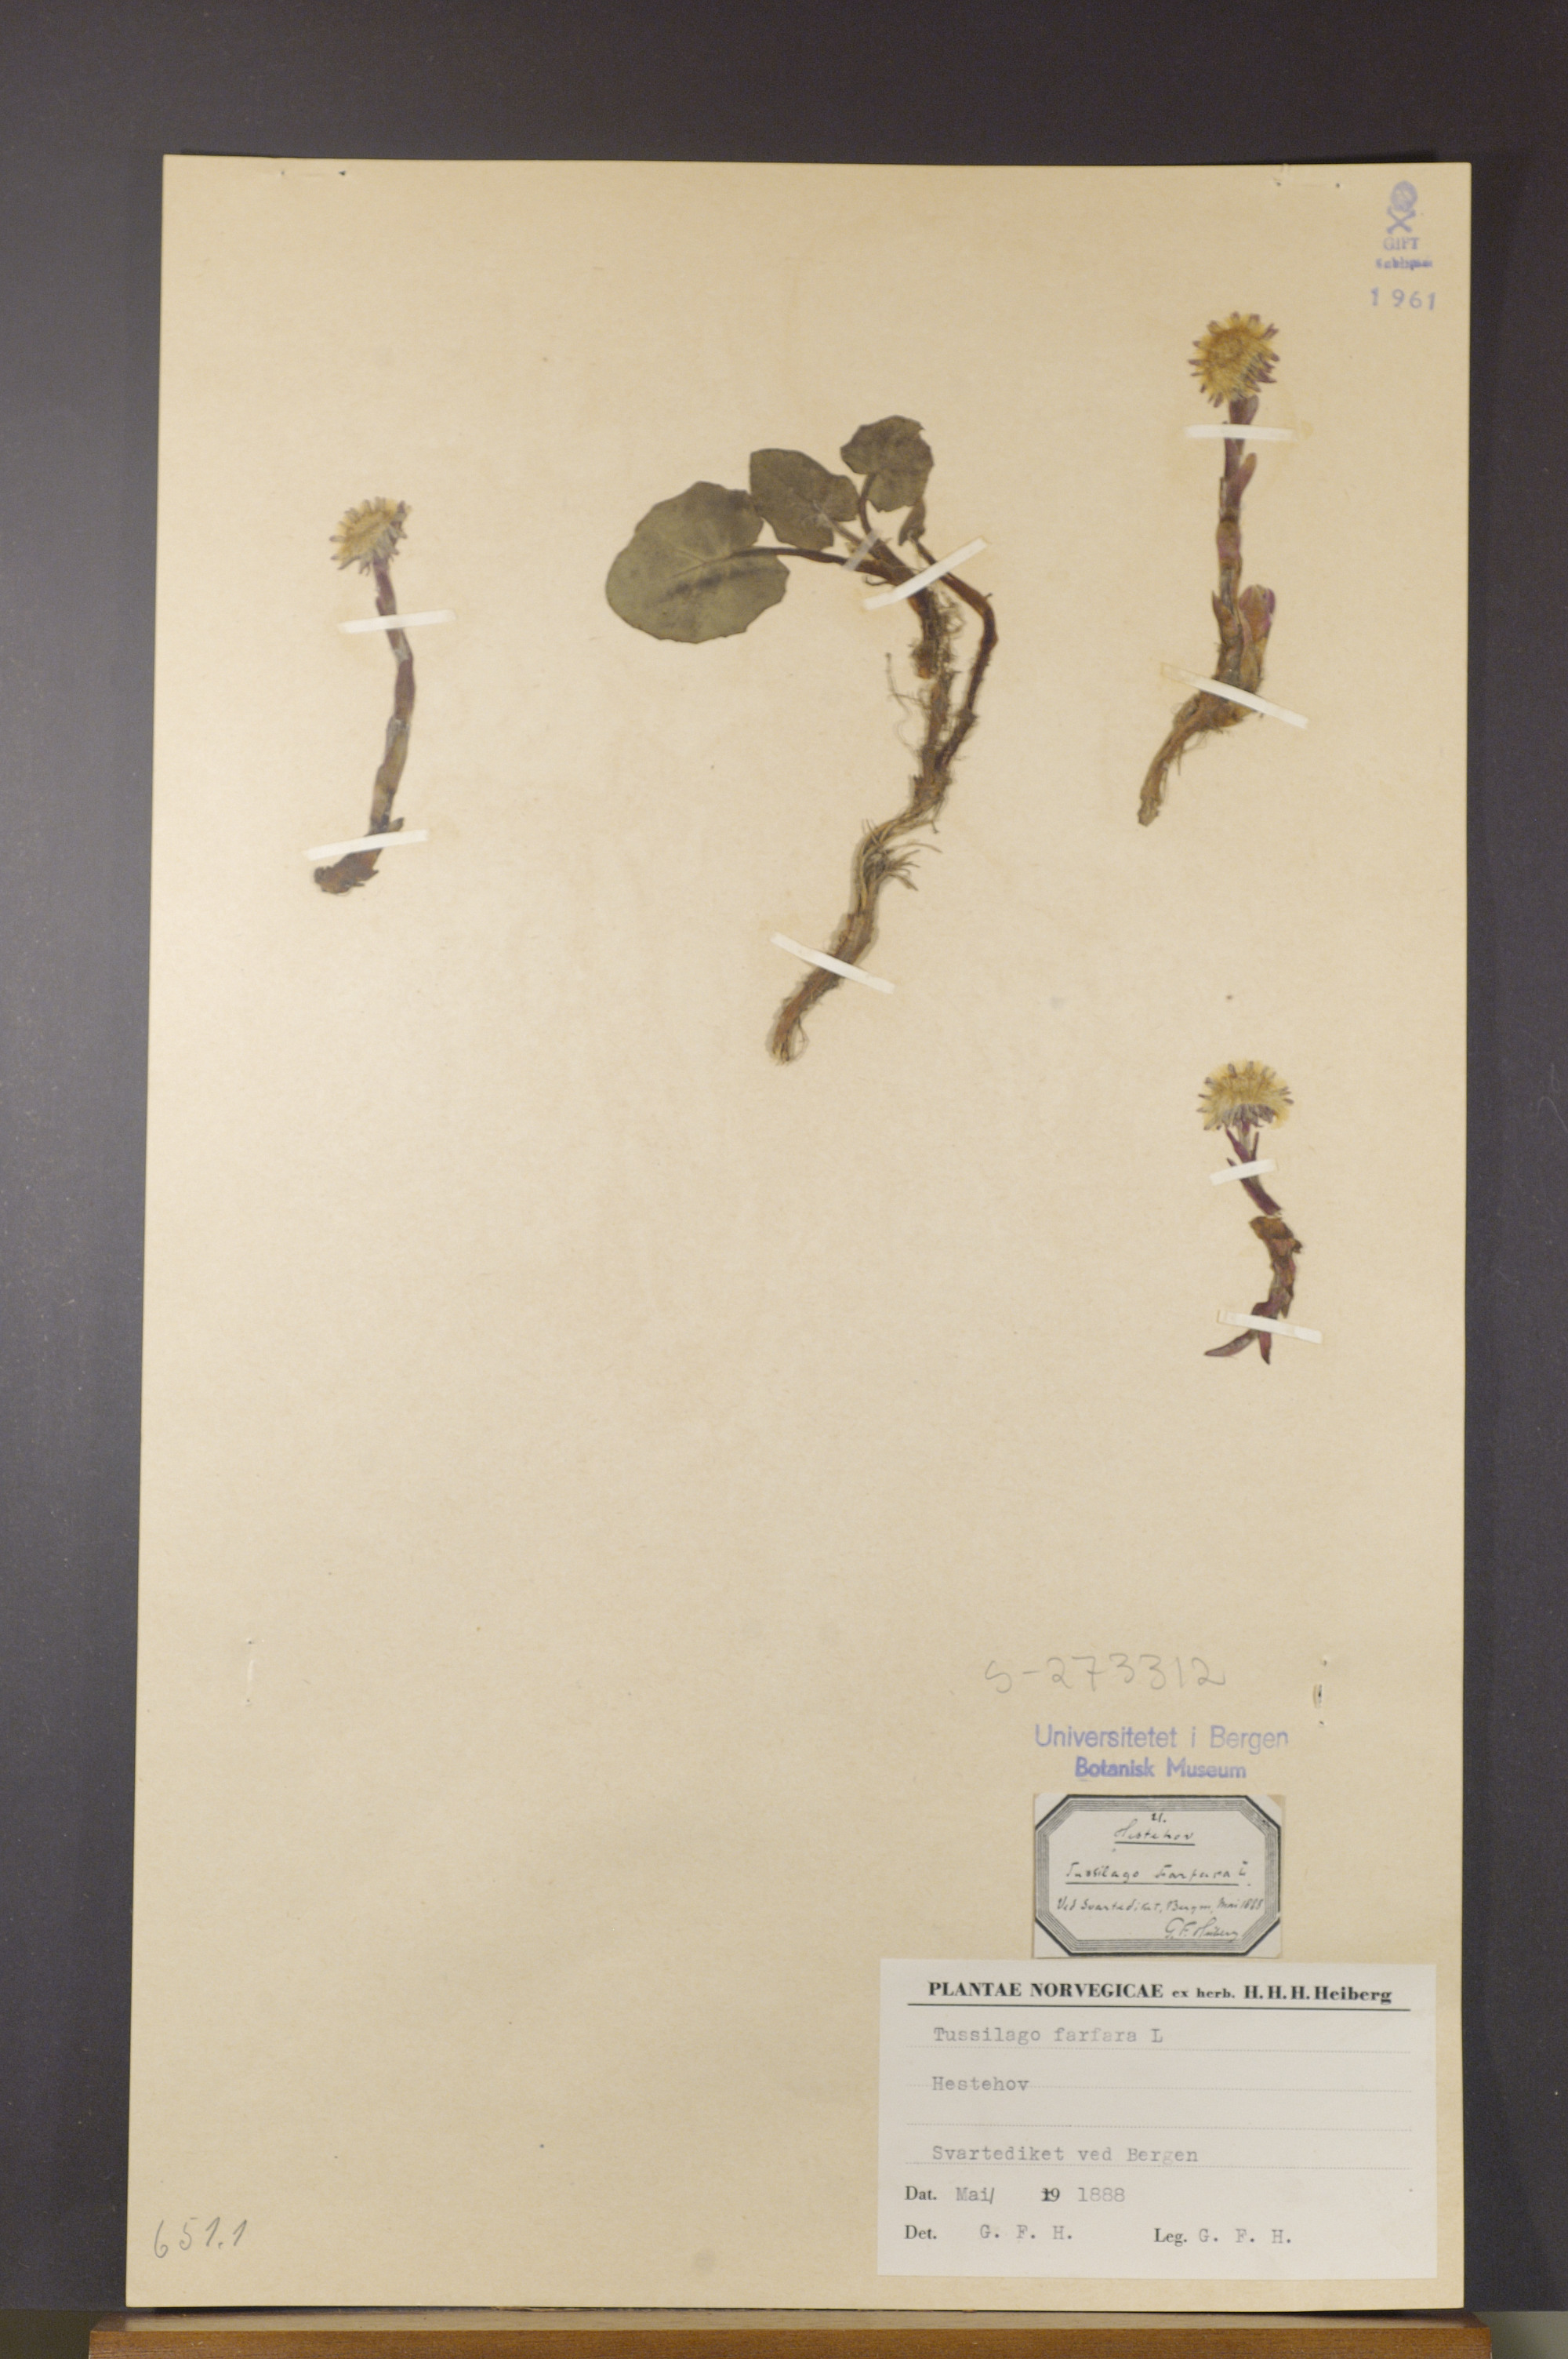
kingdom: Plantae
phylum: Tracheophyta
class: Magnoliopsida
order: Asterales
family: Asteraceae
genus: Tussilago
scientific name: Tussilago farfara
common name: Coltsfoot
